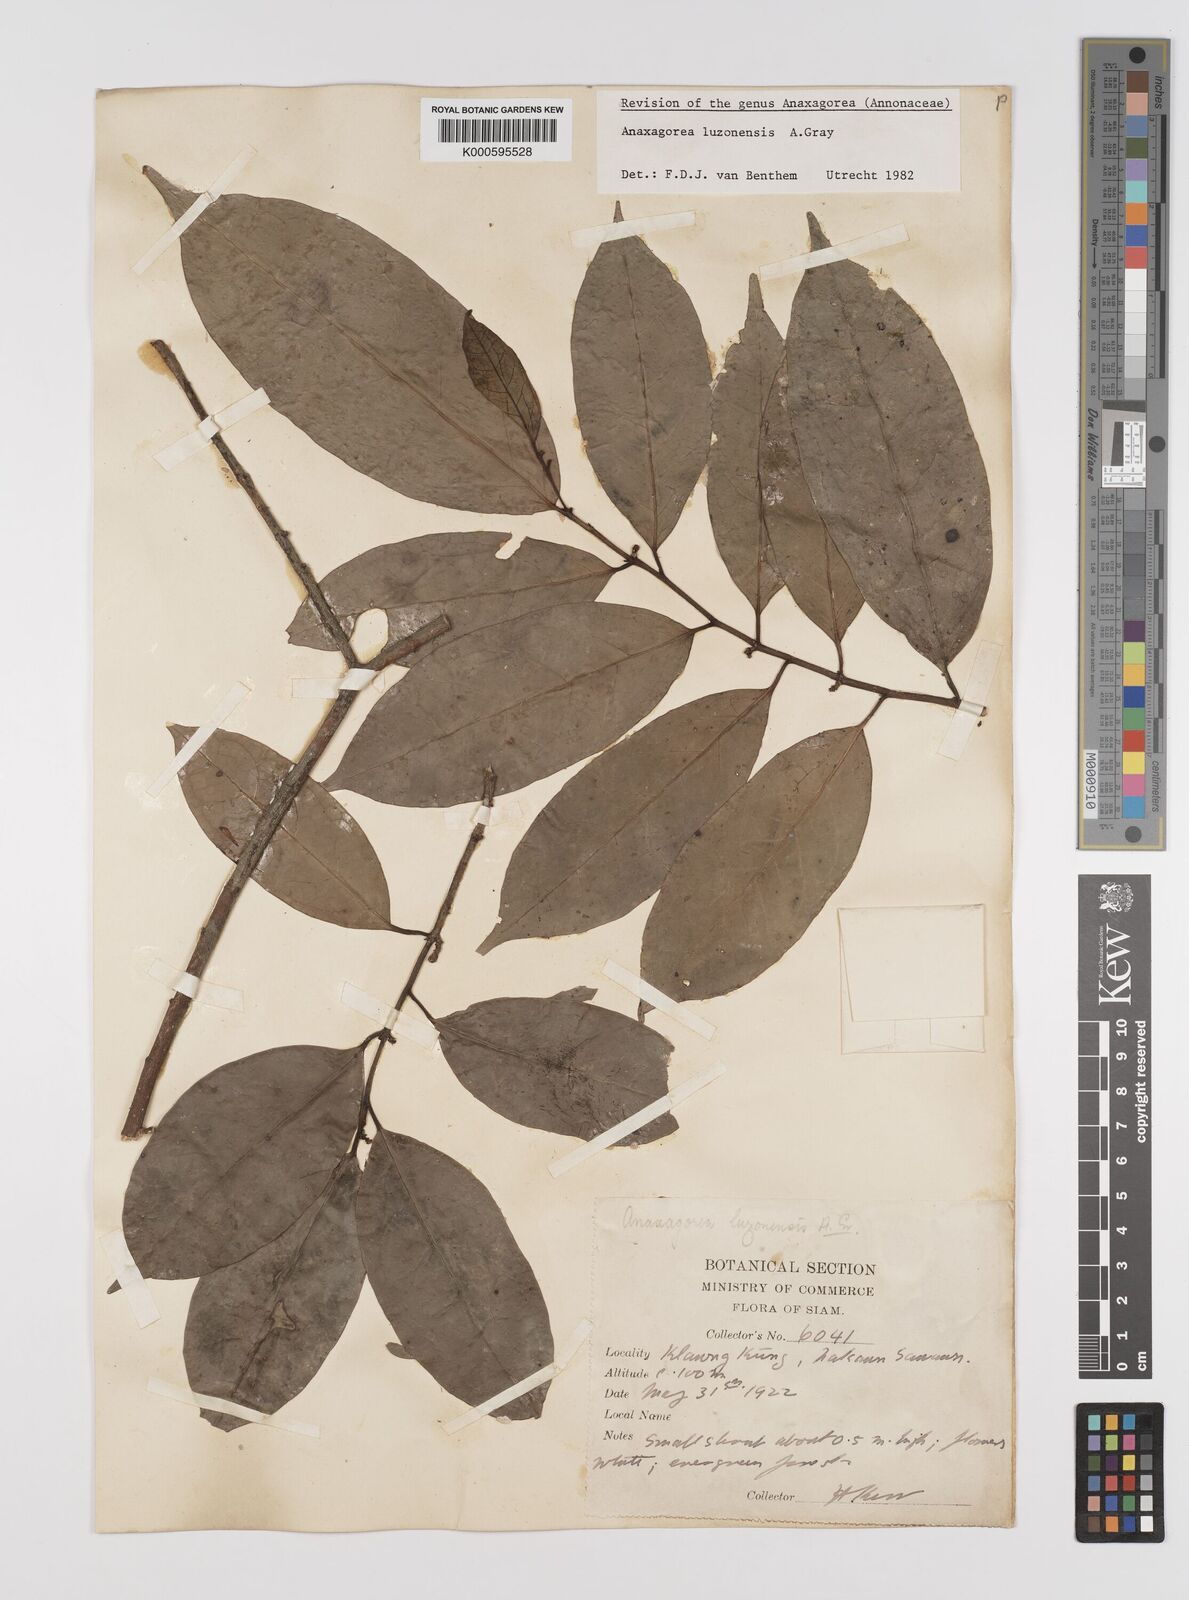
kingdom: Plantae
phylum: Tracheophyta
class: Magnoliopsida
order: Magnoliales
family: Annonaceae
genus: Anaxagorea
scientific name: Anaxagorea luzonensis
